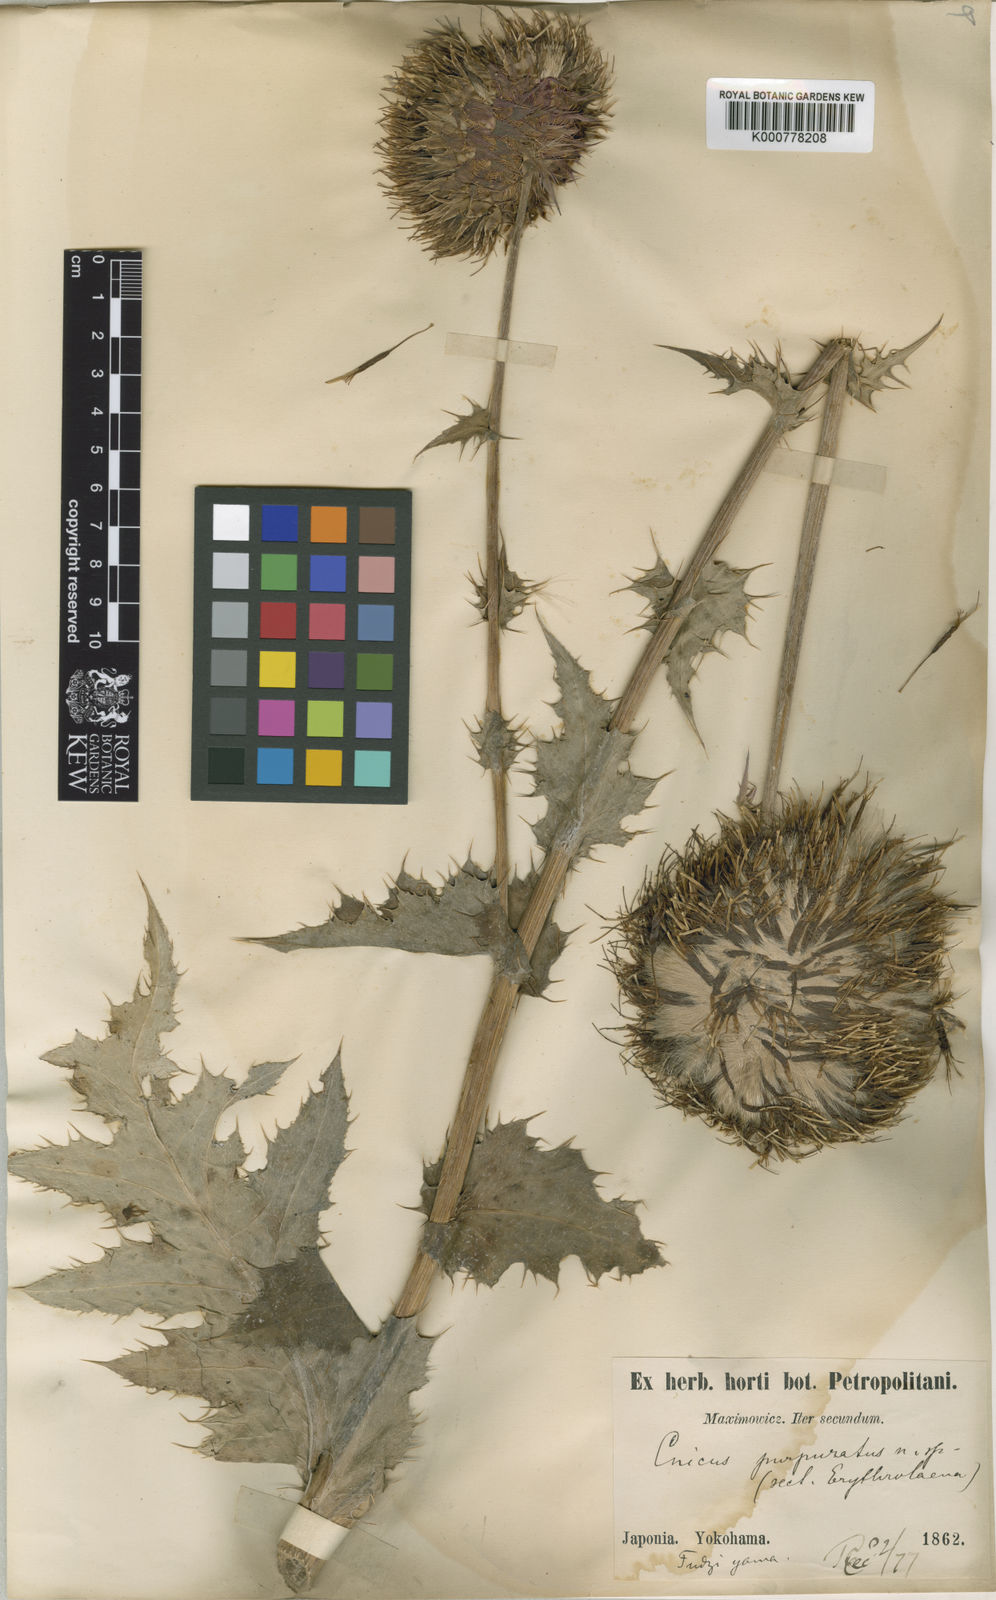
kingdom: Plantae
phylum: Tracheophyta
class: Magnoliopsida
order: Asterales
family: Asteraceae
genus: Cirsium
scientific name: Cirsium purpuratum
